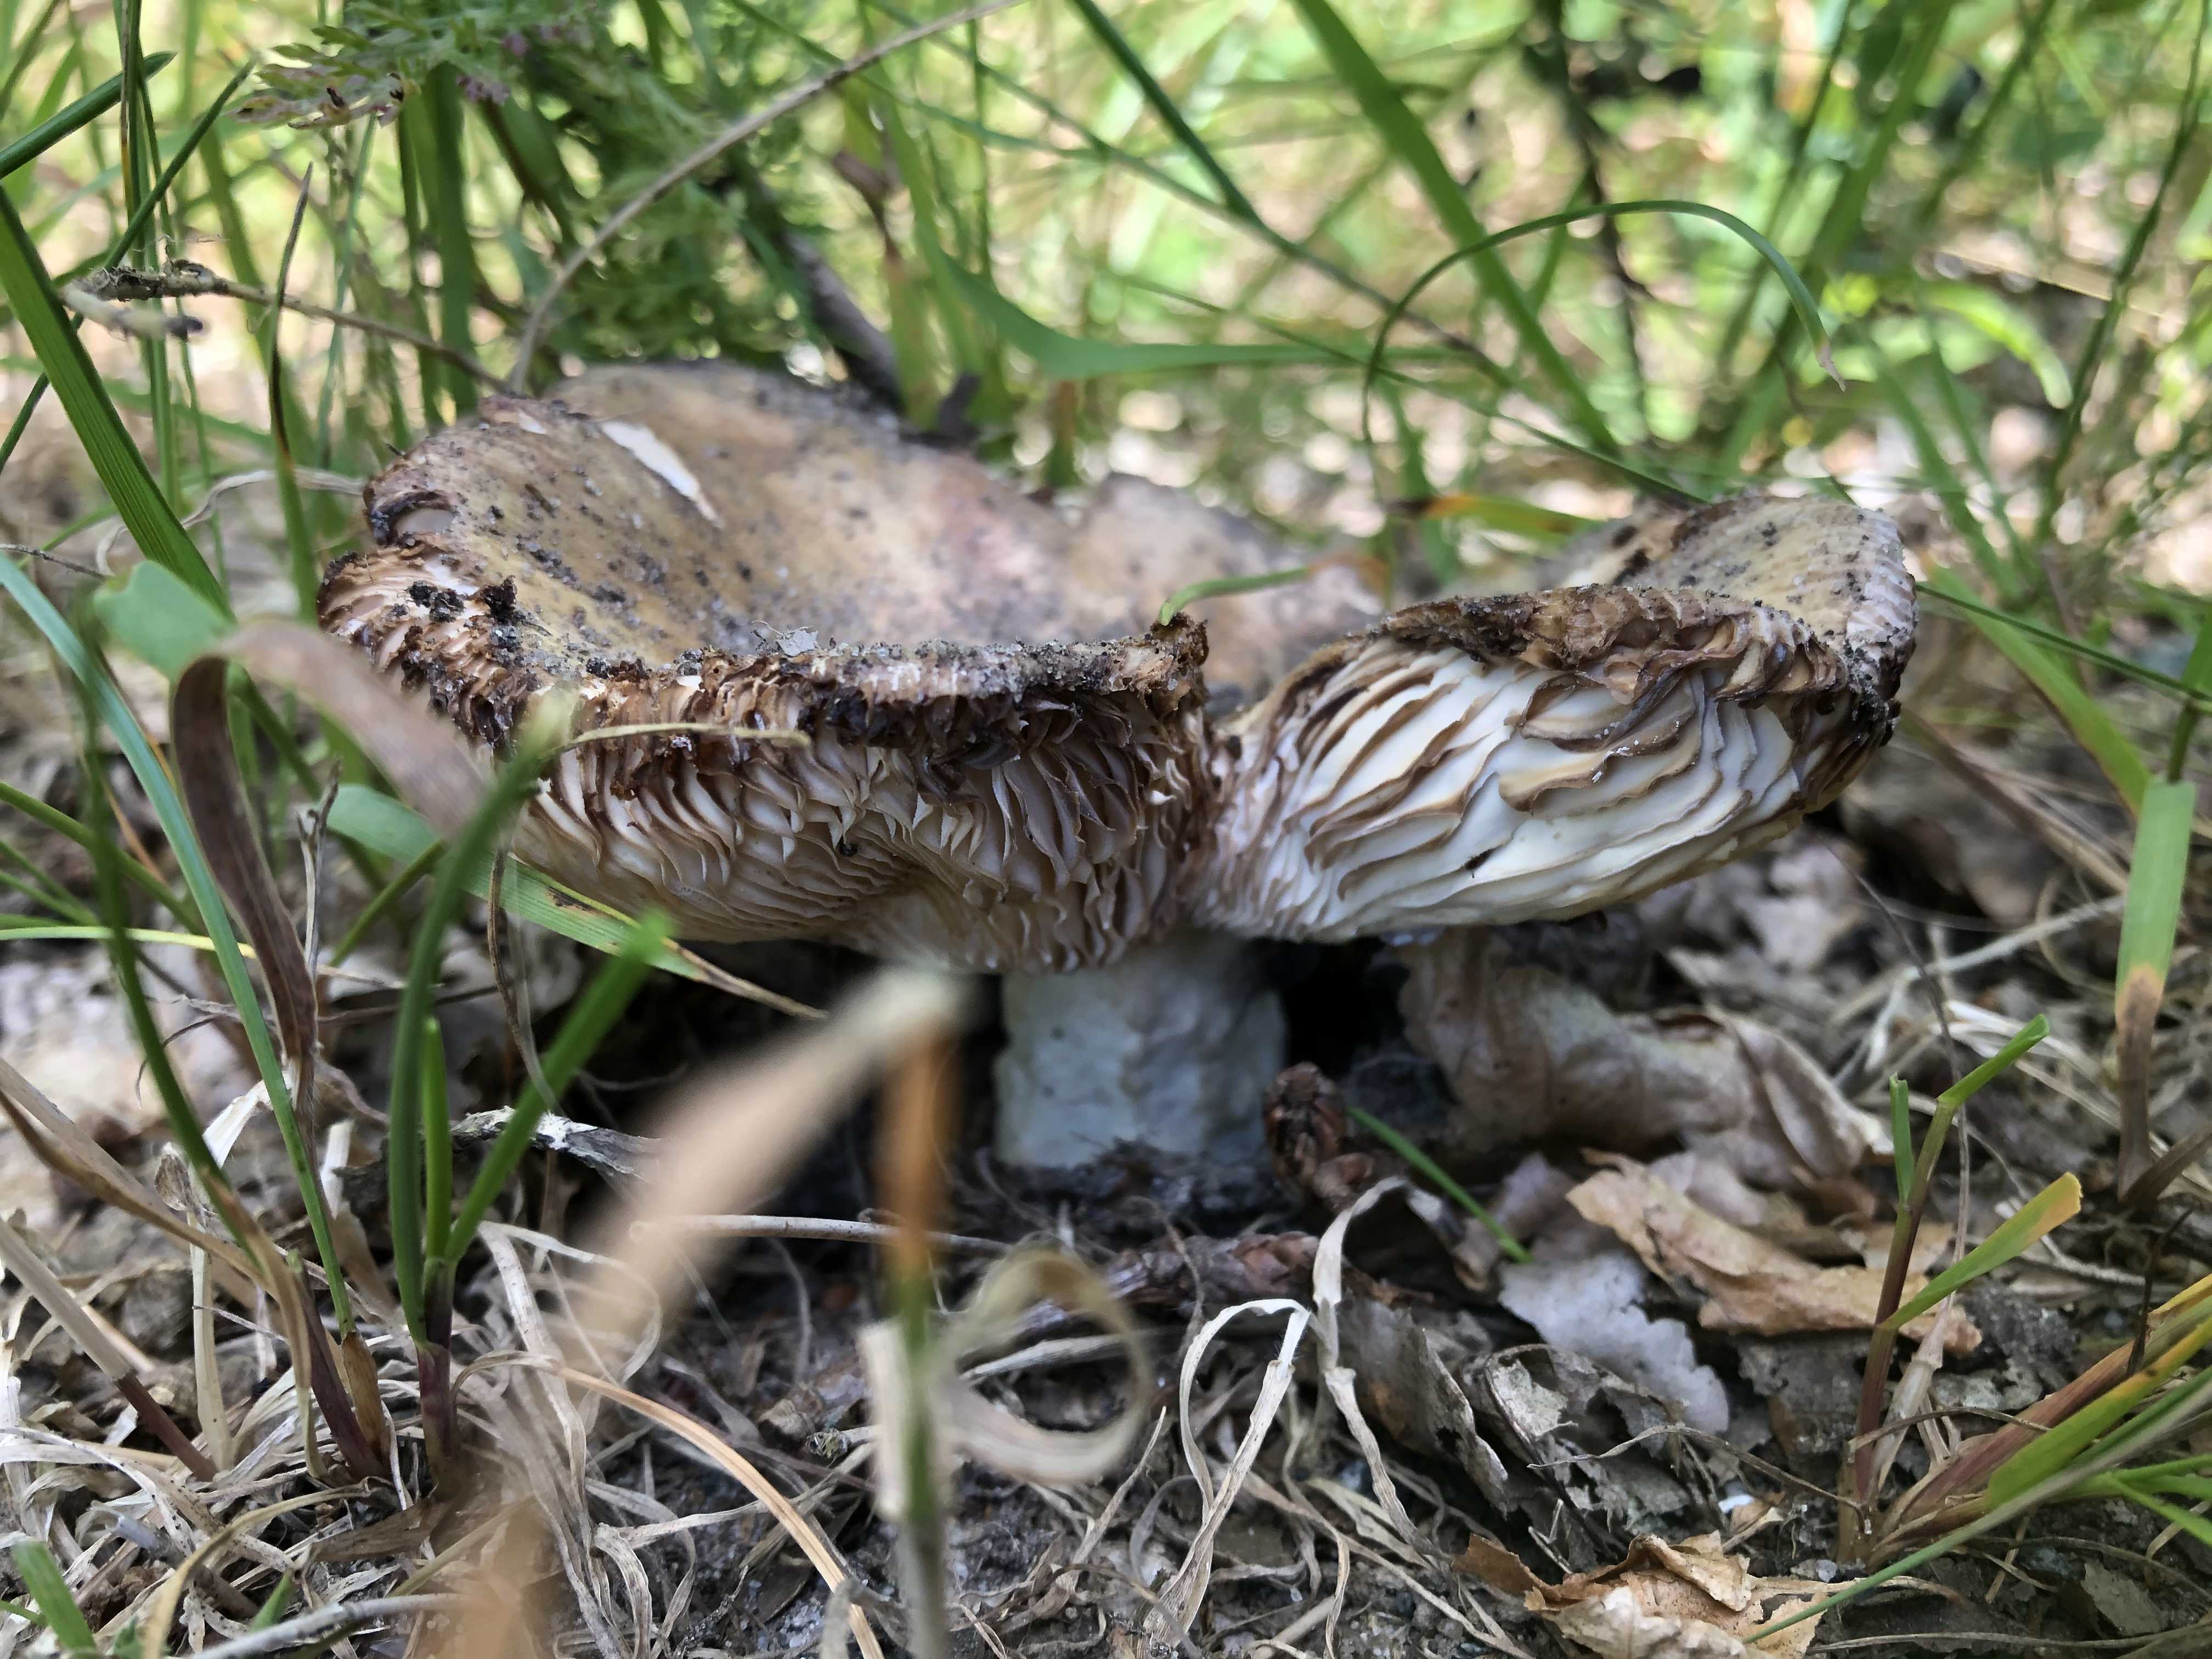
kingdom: Fungi
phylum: Basidiomycota
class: Agaricomycetes
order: Russulales
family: Russulaceae
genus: Russula
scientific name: Russula adusta
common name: sværtende skørhat
